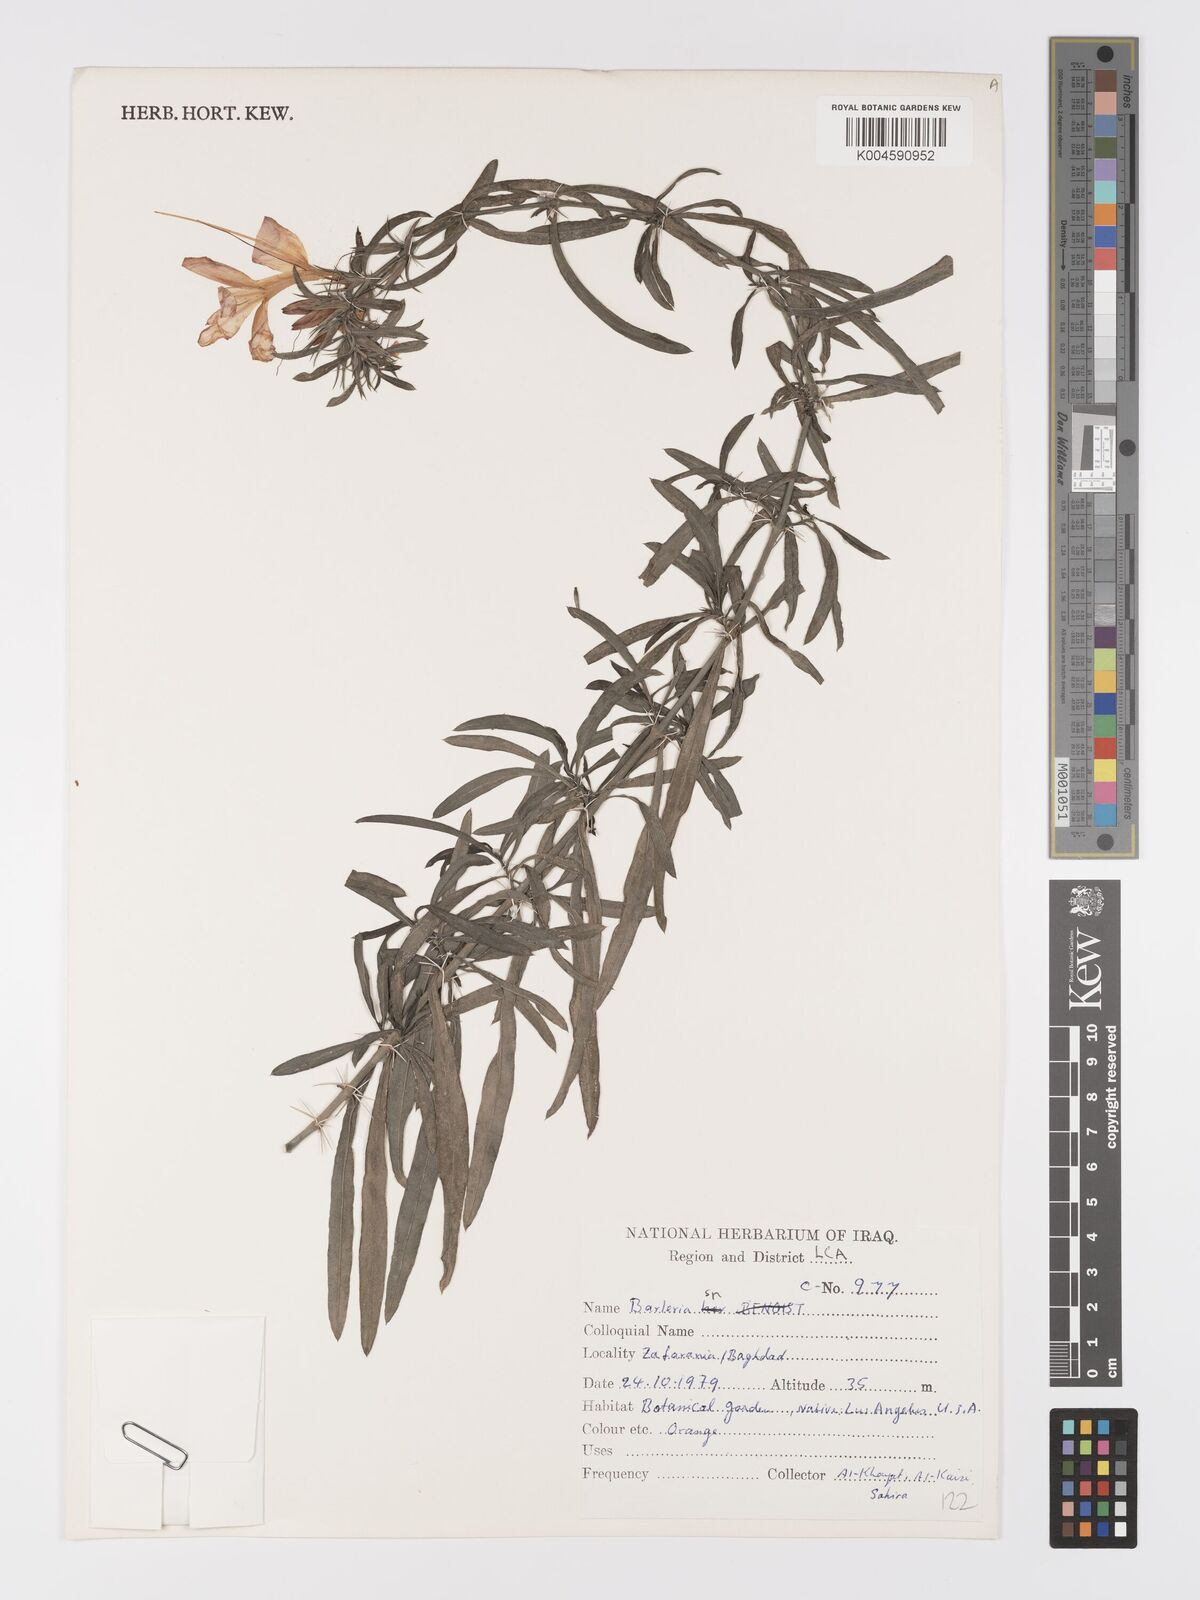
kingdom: Plantae
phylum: Tracheophyta
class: Magnoliopsida
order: Lamiales
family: Acanthaceae
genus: Barleria
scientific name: Barleria her
